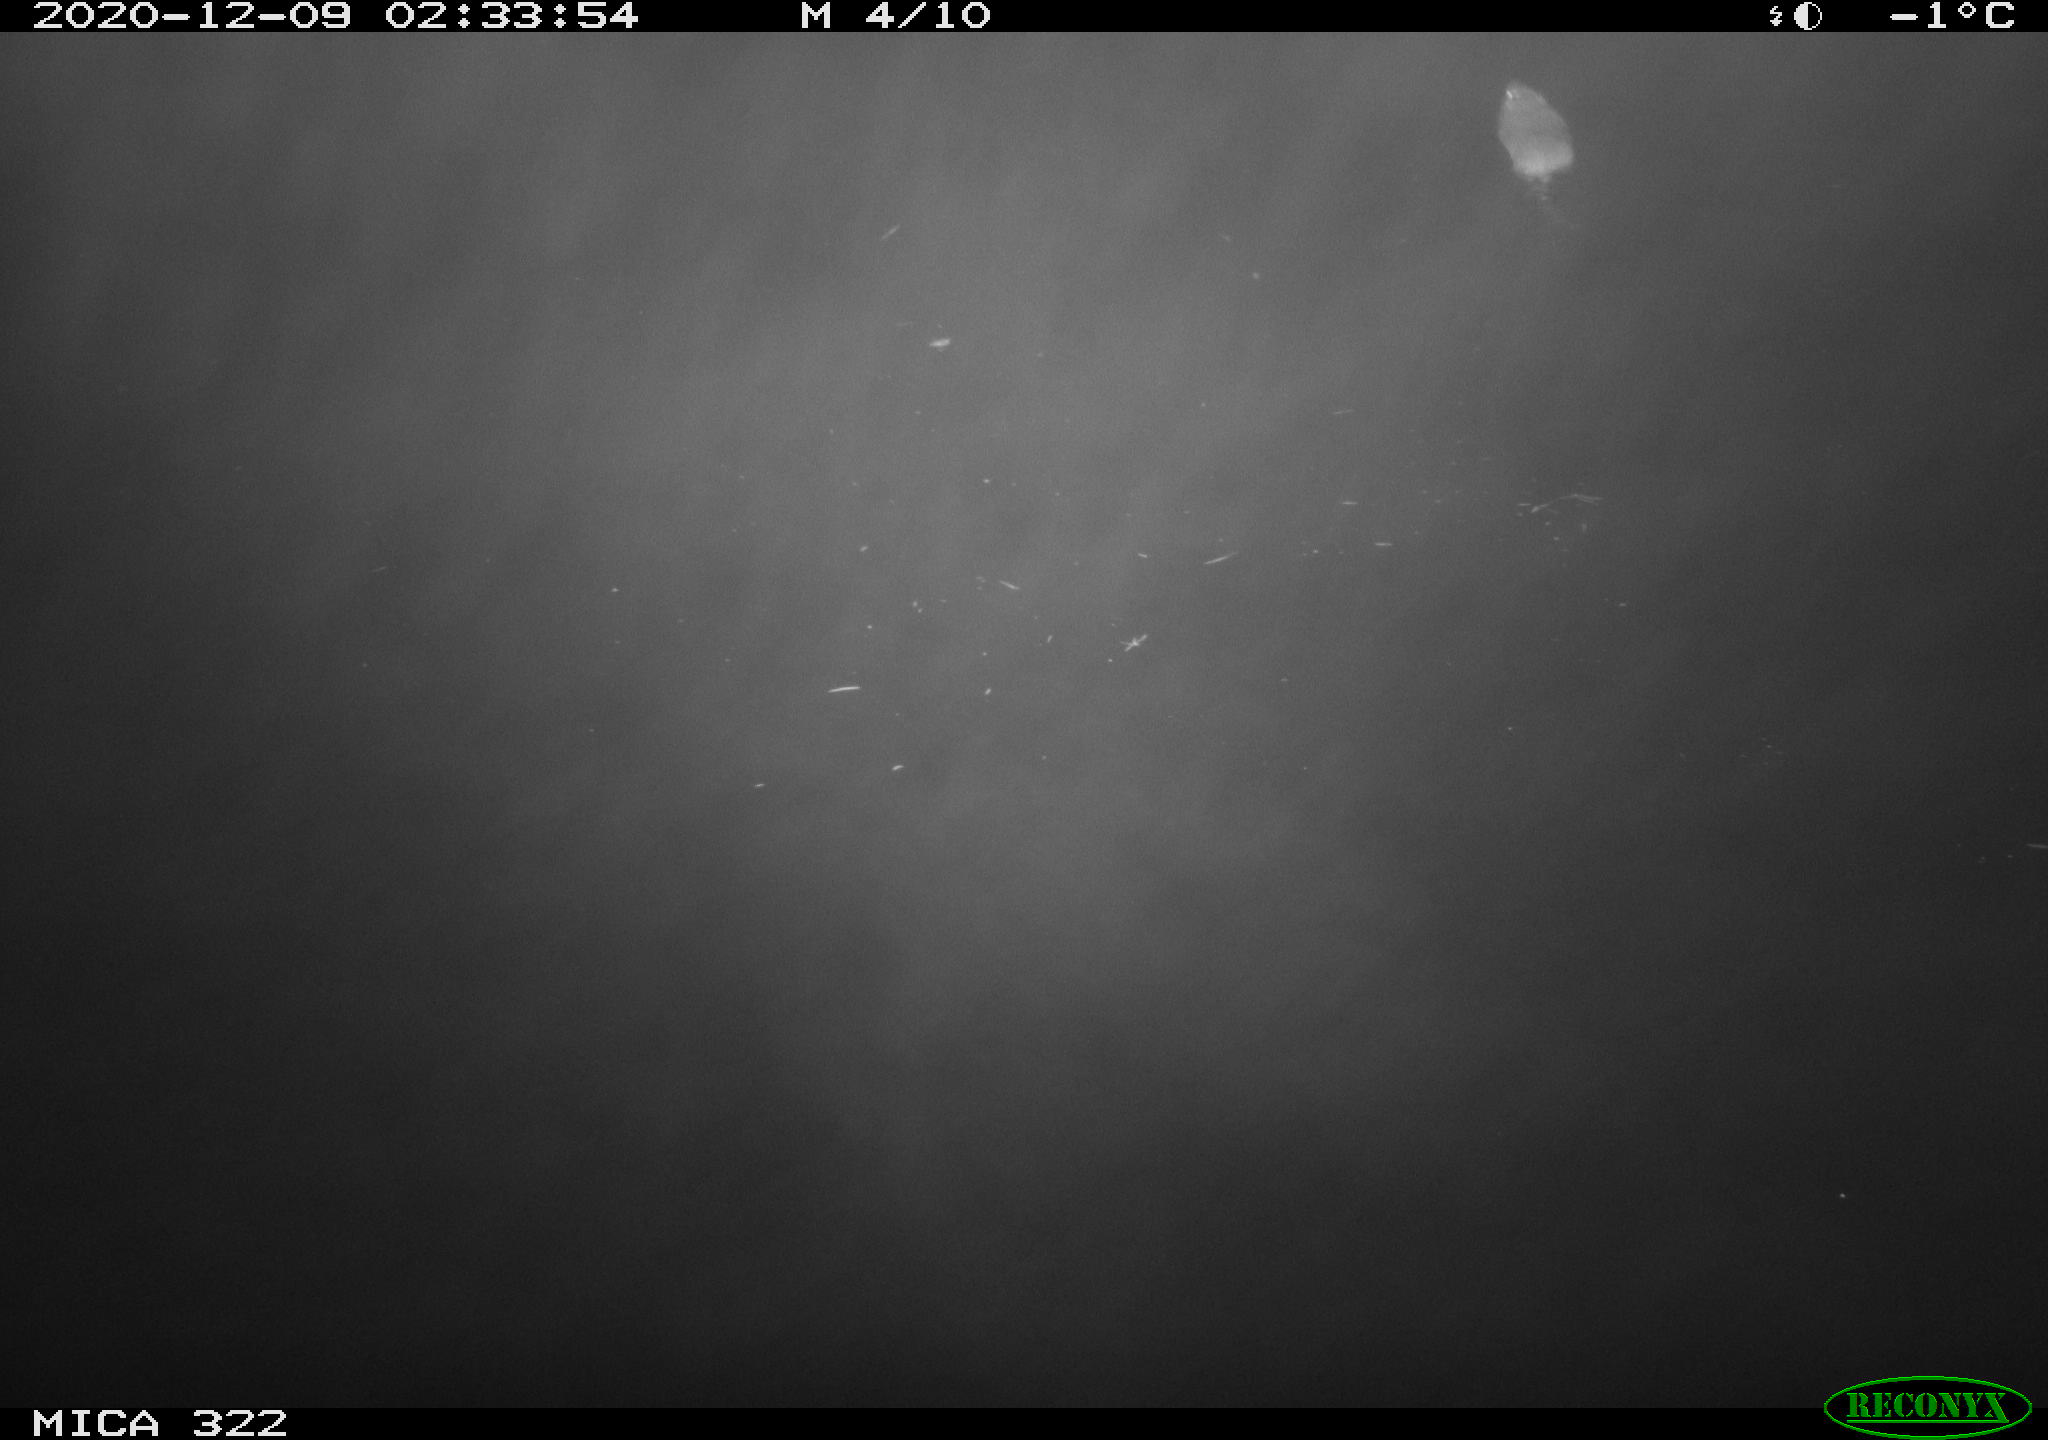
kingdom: Animalia
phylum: Chordata
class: Mammalia
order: Rodentia
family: Muridae
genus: Rattus
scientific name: Rattus norvegicus
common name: Brown rat
